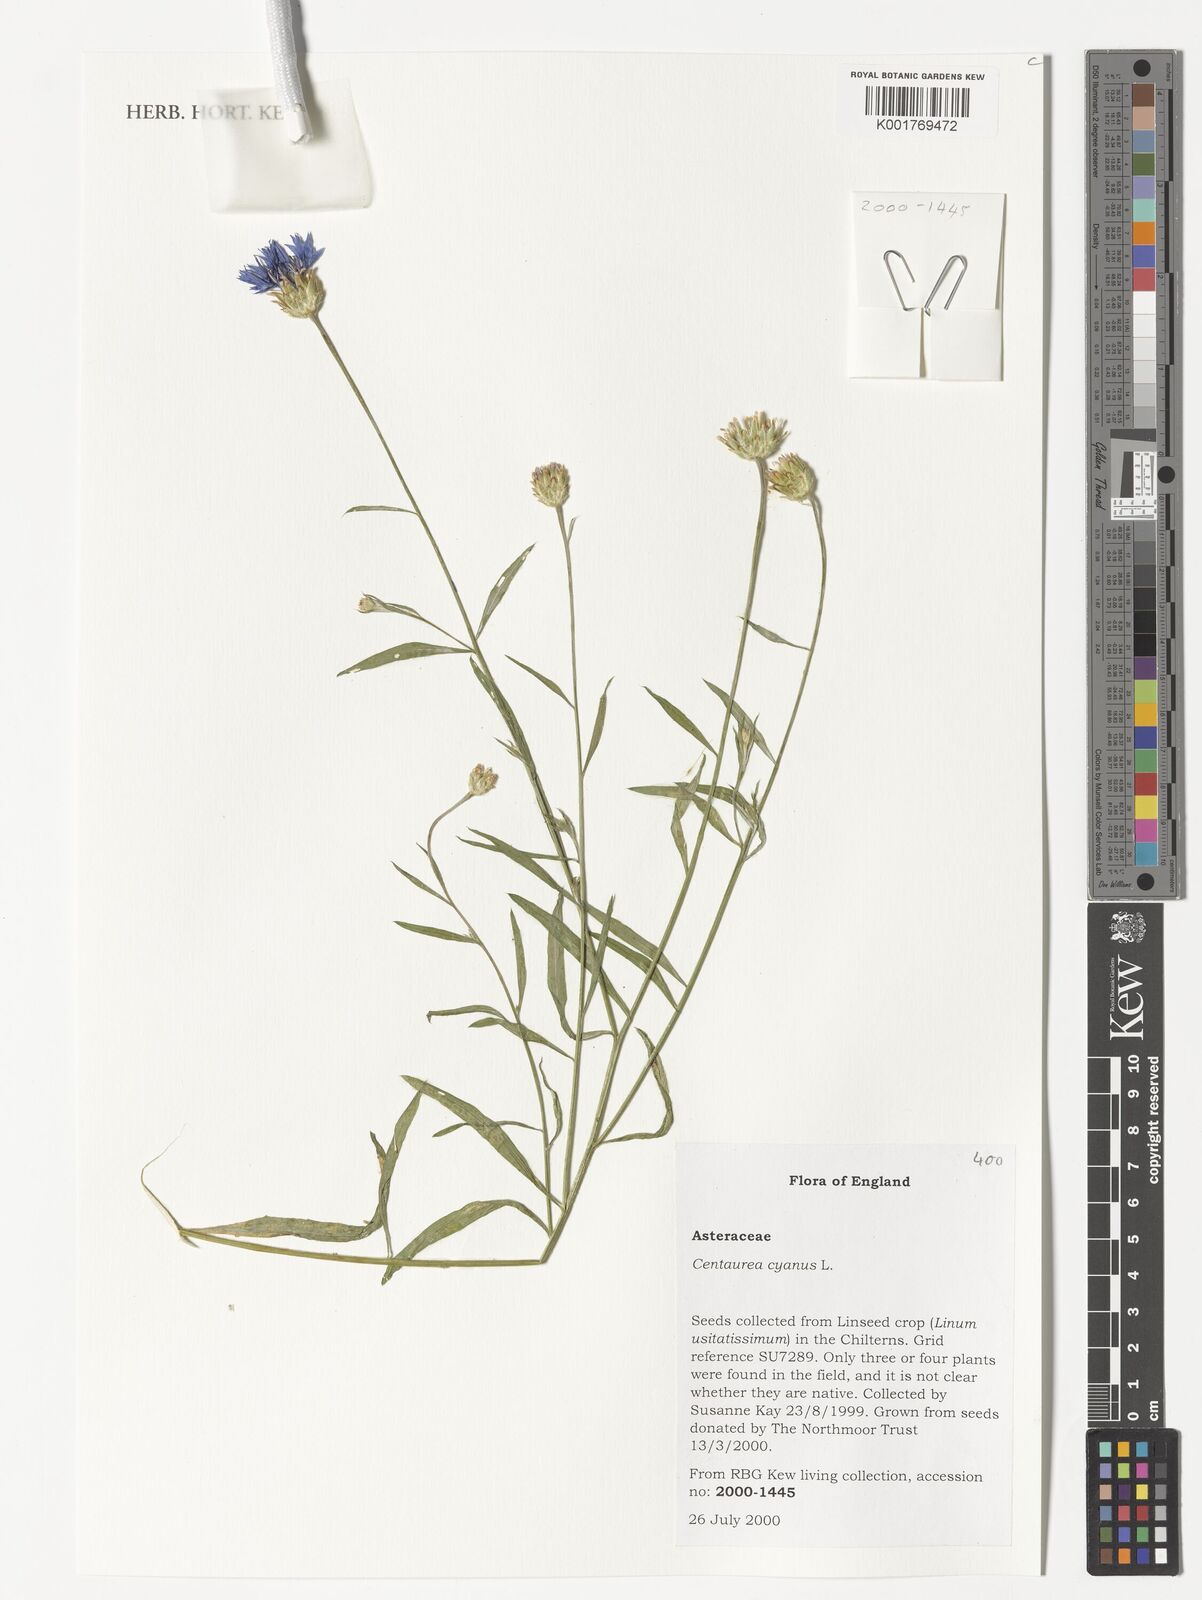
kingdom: Plantae
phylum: Tracheophyta
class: Magnoliopsida
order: Asterales
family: Asteraceae
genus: Centaurea
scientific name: Centaurea cyanus
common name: Cornflower
